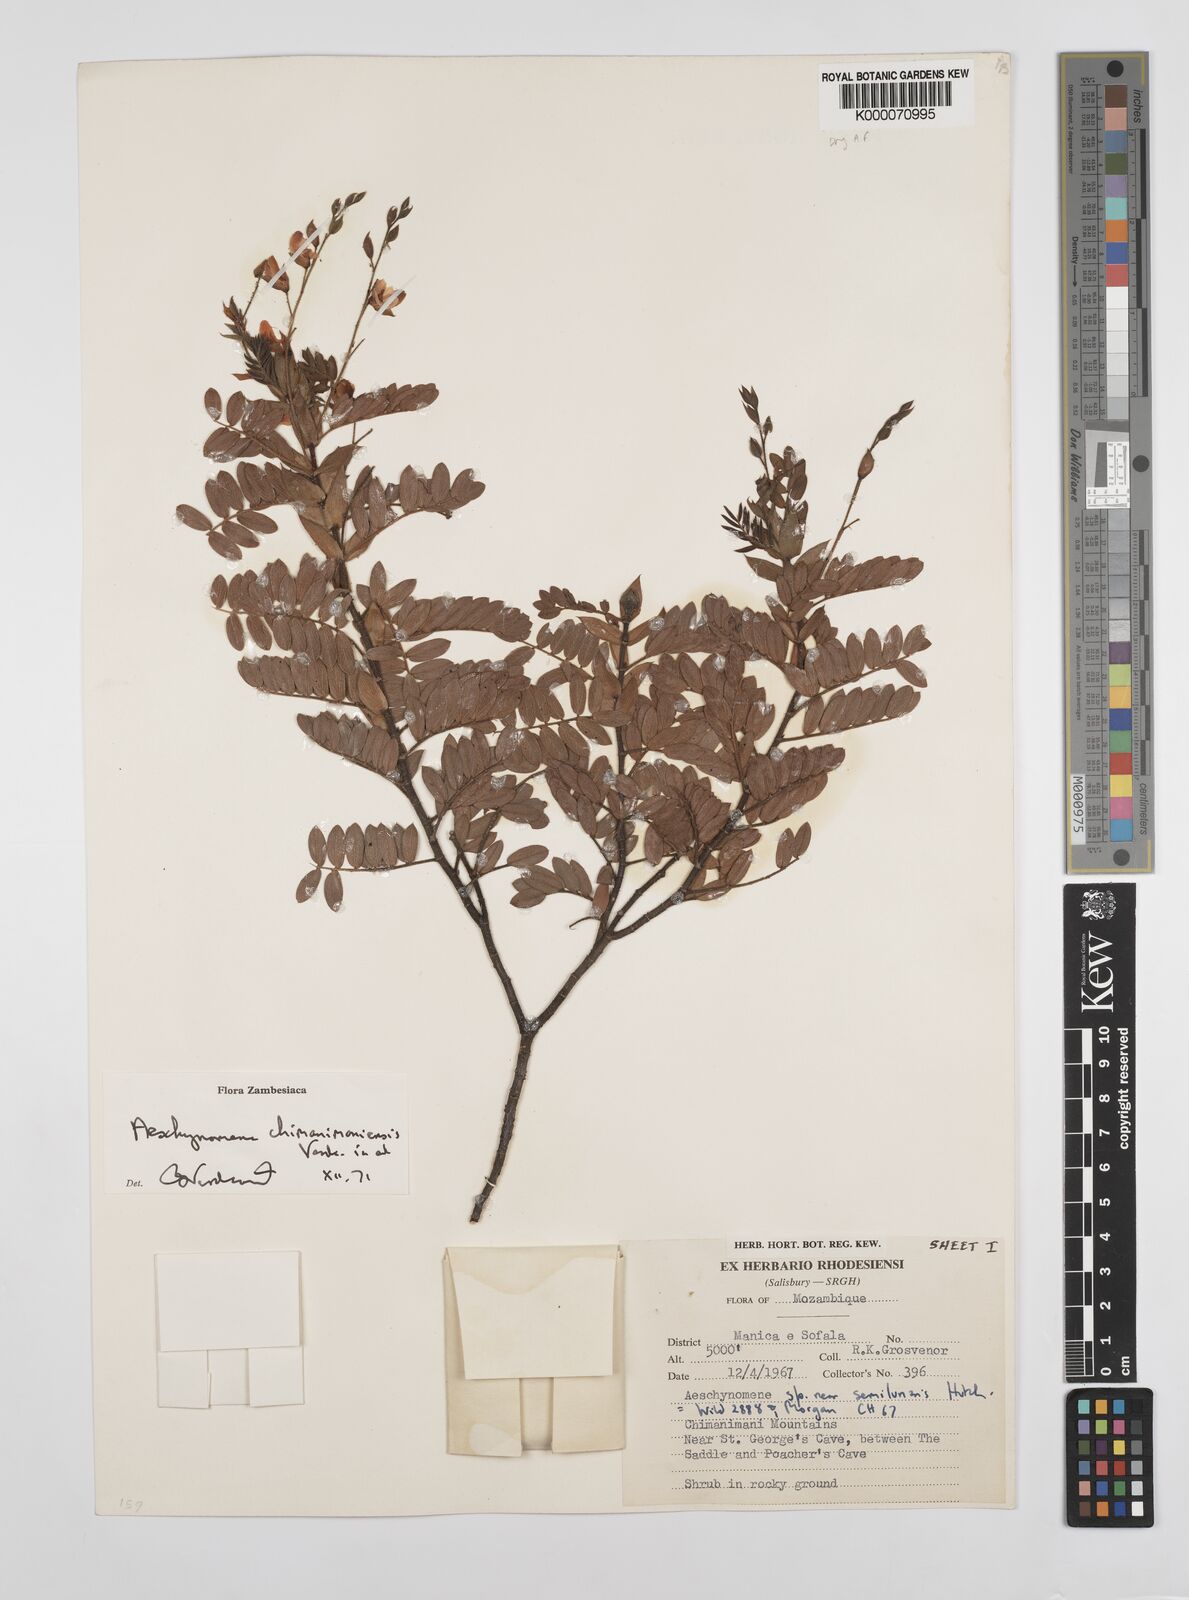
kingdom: Plantae
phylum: Tracheophyta
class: Magnoliopsida
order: Fabales
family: Fabaceae
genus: Aeschynomene
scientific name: Aeschynomene chimanimaniensis
